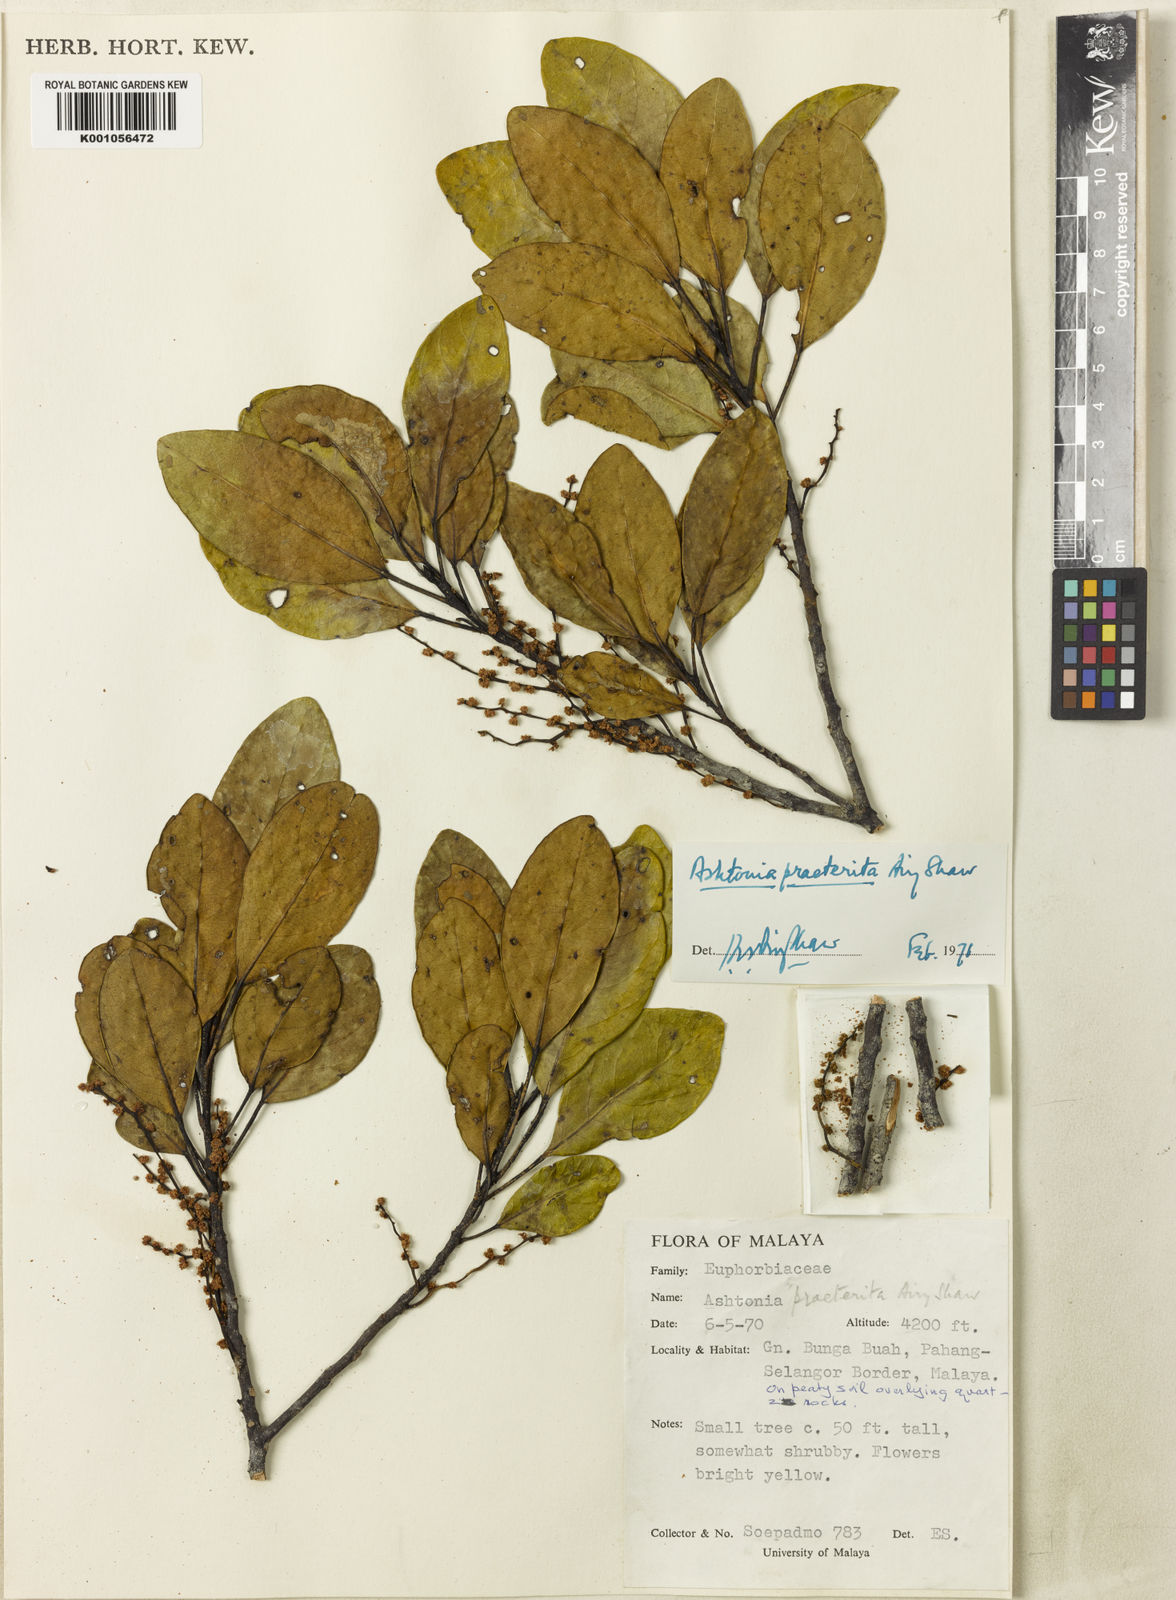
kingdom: Plantae
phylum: Tracheophyta
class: Magnoliopsida
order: Malpighiales
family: Phyllanthaceae
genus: Ashtonia
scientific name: Ashtonia praeterita
